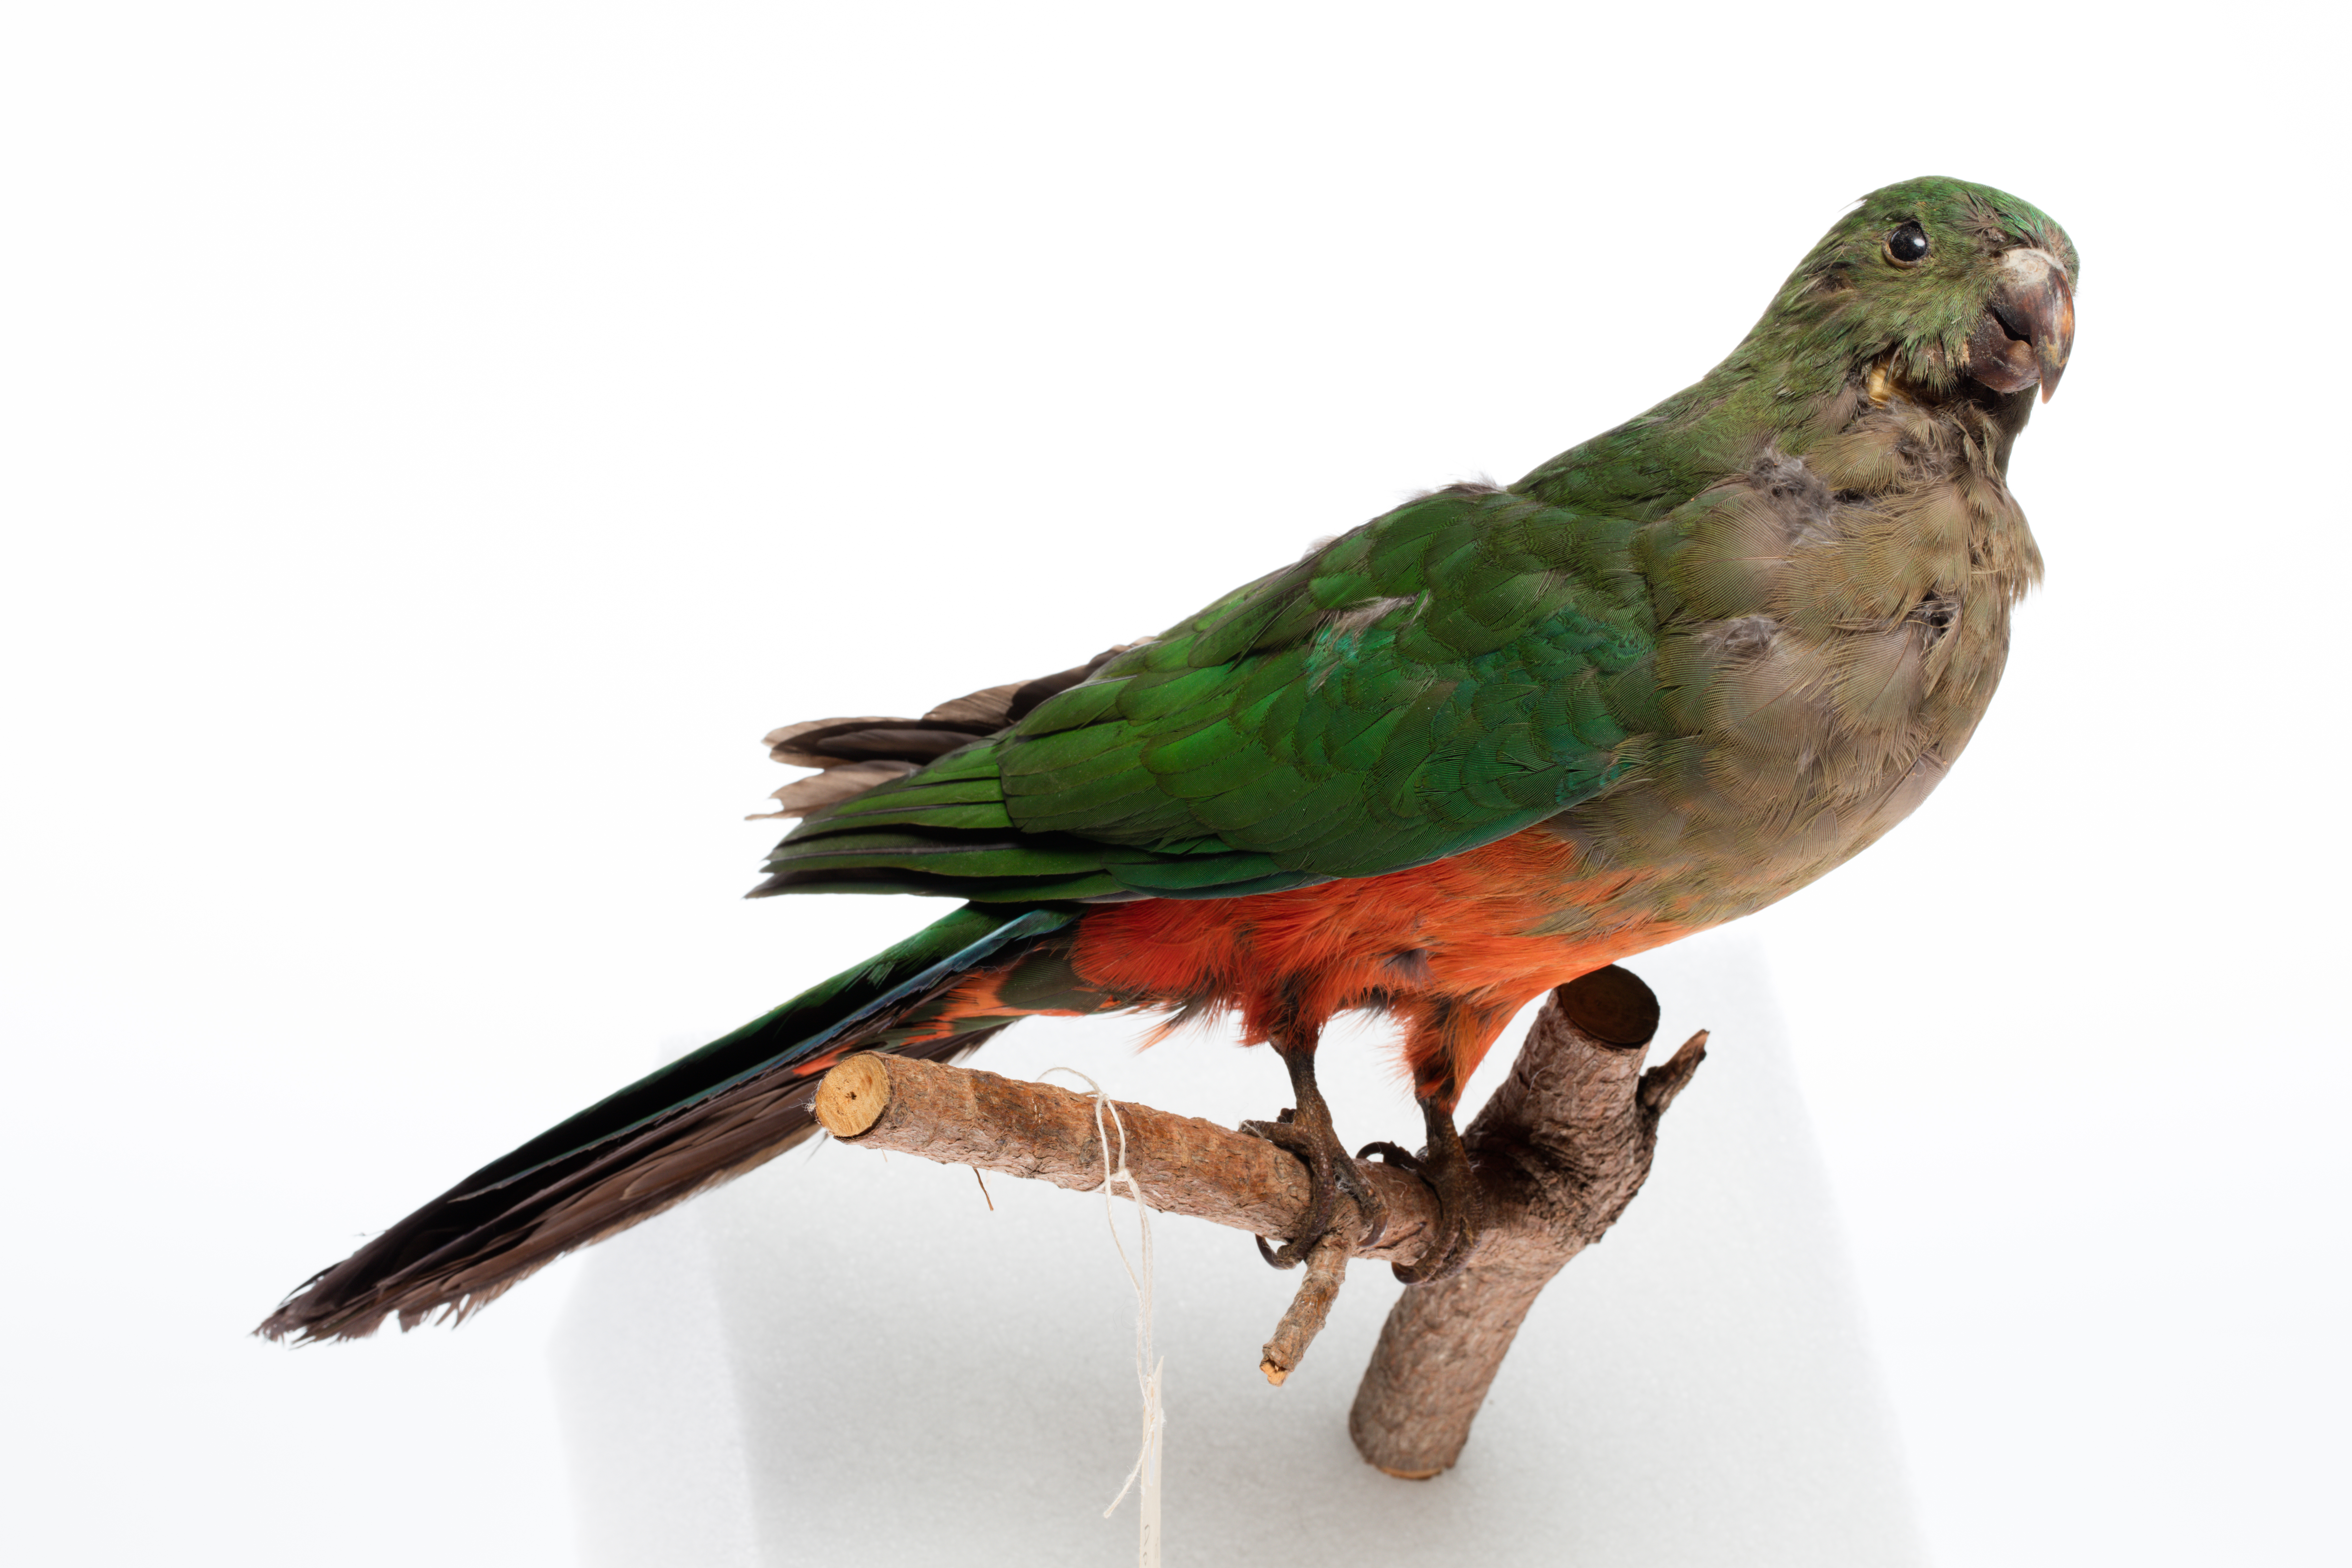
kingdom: Animalia
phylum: Chordata
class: Aves
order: Psittaciformes
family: Psittacidae
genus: Alisterus
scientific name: Alisterus scapularis
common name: Australian king parrot
